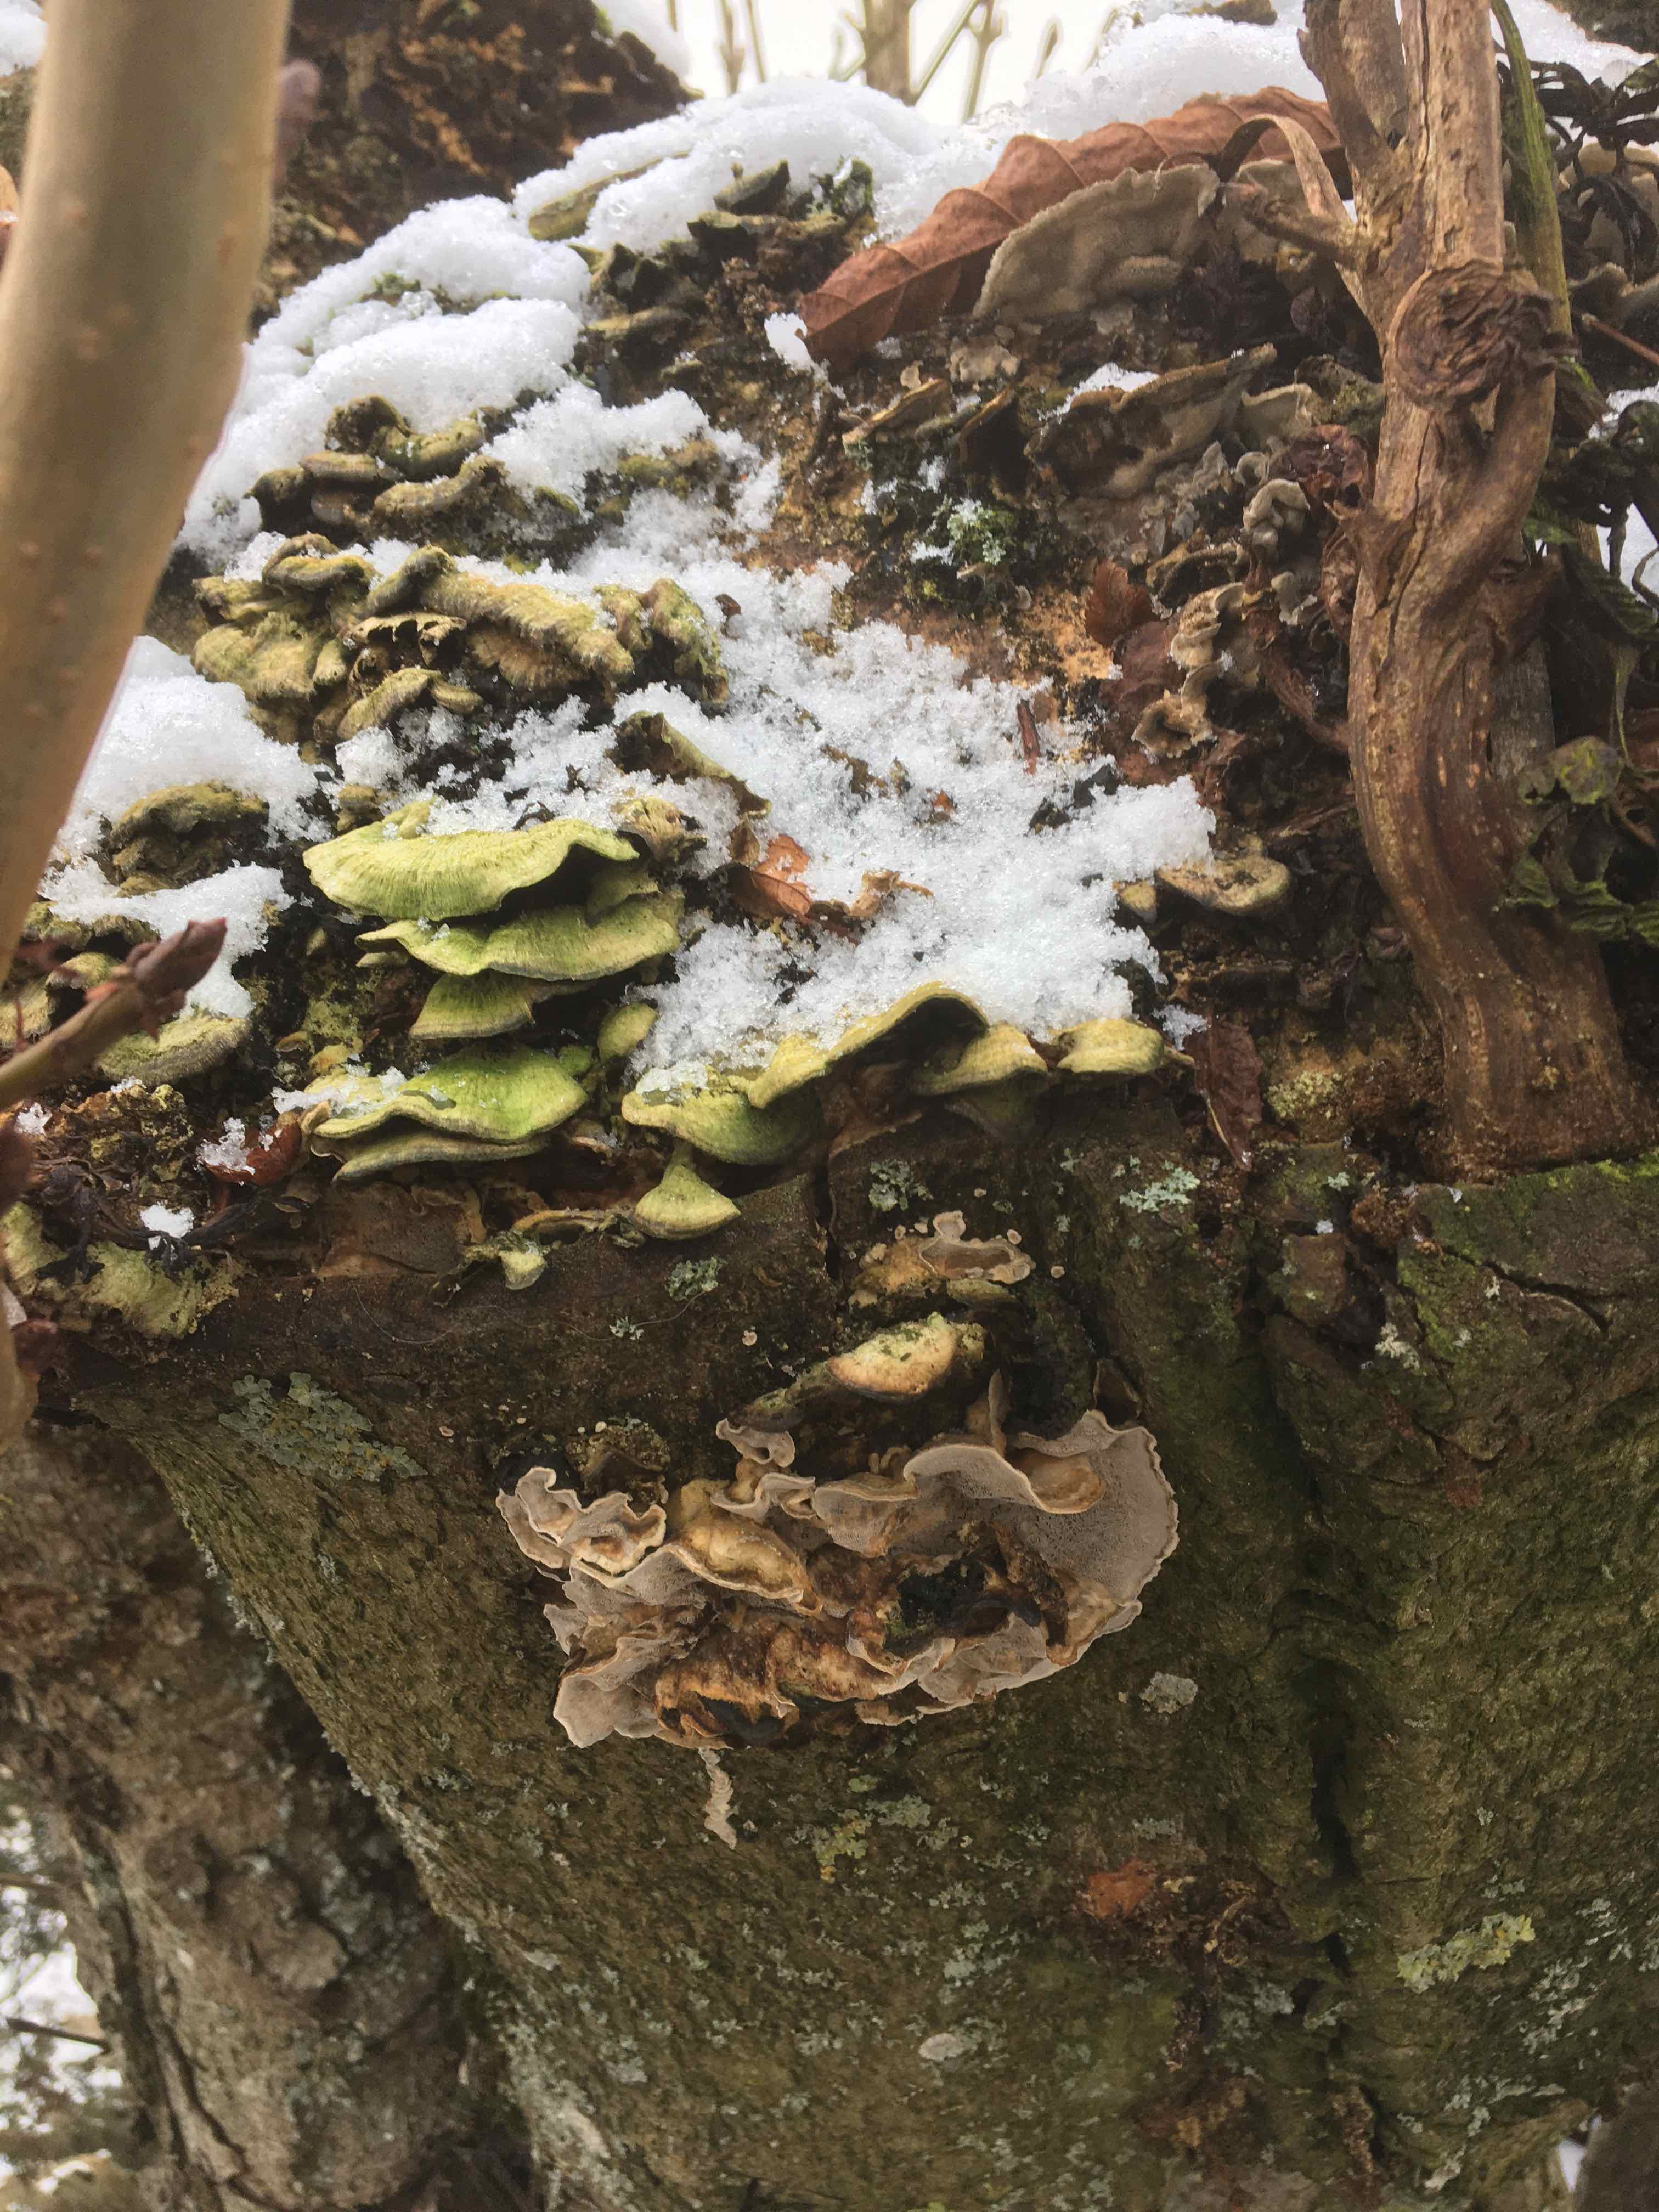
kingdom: Fungi
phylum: Basidiomycota
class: Agaricomycetes
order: Polyporales
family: Phanerochaetaceae
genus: Bjerkandera
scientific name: Bjerkandera adusta
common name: sveden sodporesvamp
